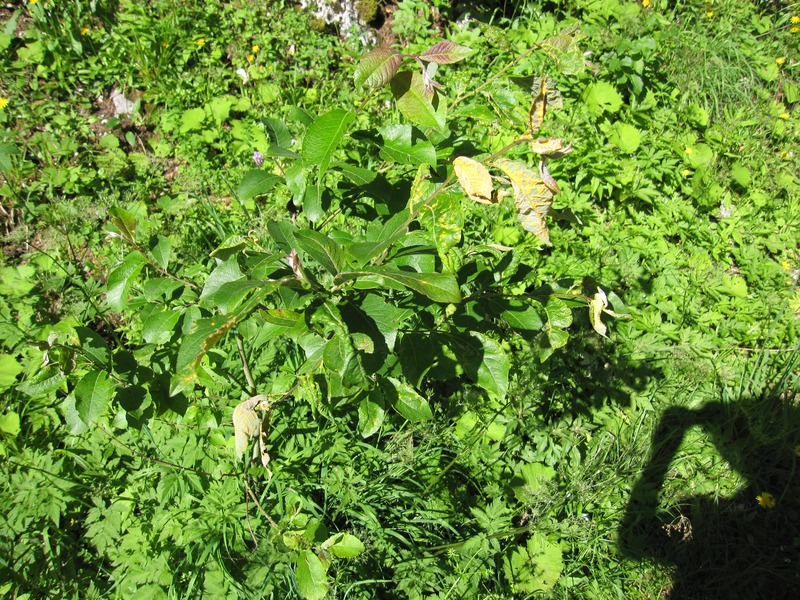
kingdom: Fungi
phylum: Basidiomycota
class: Pucciniomycetes
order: Pucciniales
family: Melampsoraceae
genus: Melampsora
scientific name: Melampsora caprearum
